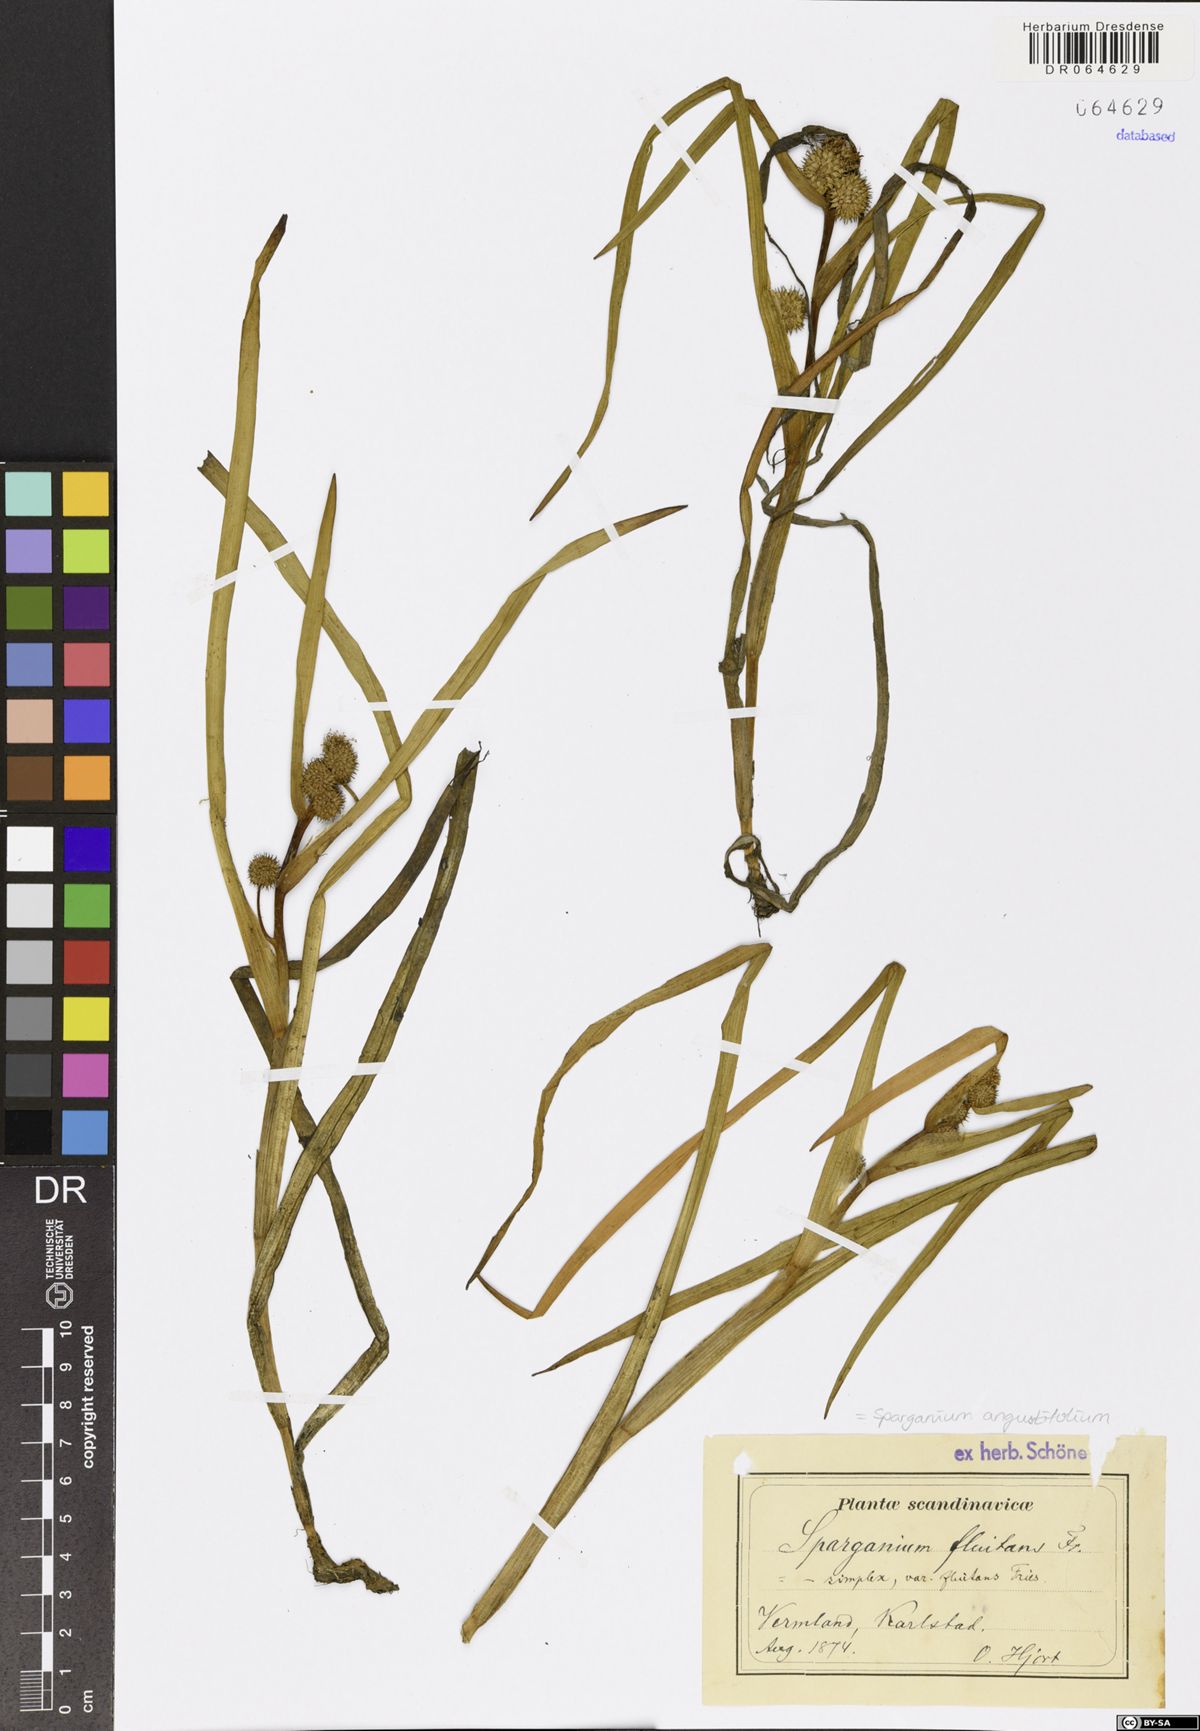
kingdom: Plantae
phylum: Tracheophyta
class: Liliopsida
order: Poales
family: Typhaceae
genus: Sparganium
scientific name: Sparganium angustifolium
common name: Floating bur-reed
